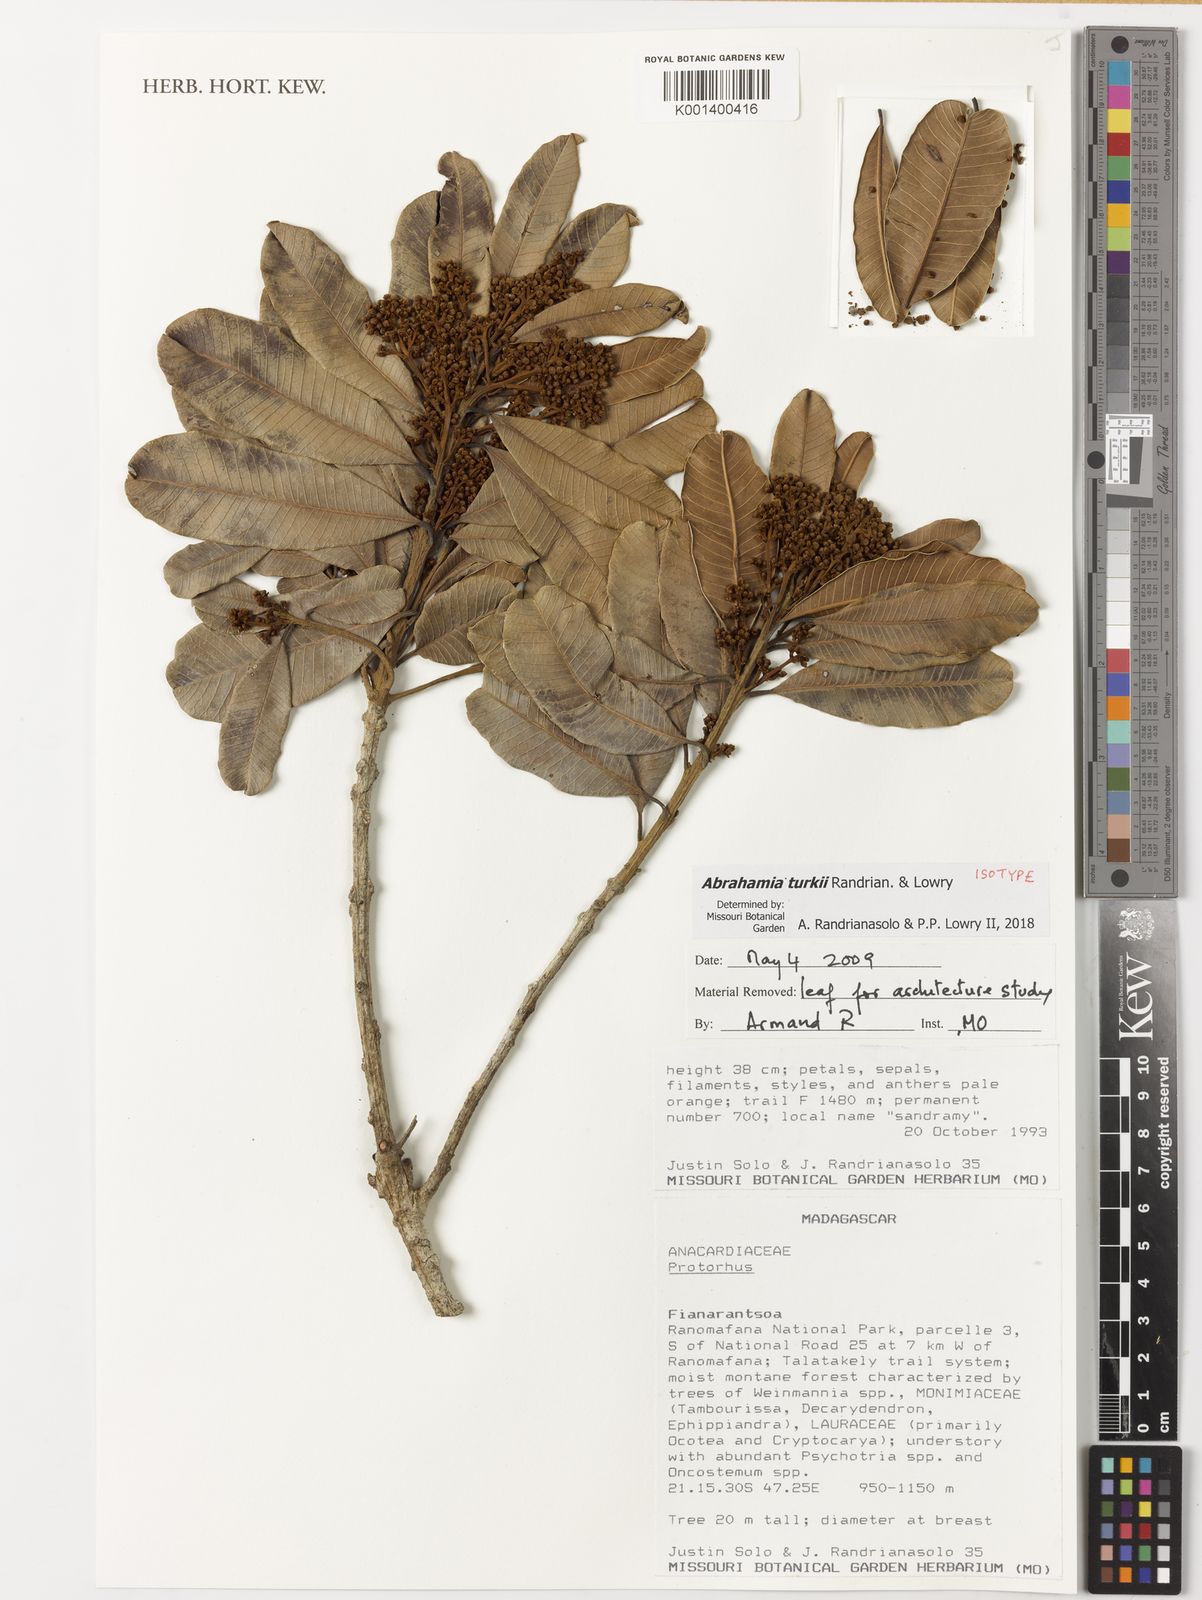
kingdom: Plantae
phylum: Tracheophyta
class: Magnoliopsida
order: Sapindales
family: Anacardiaceae
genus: Abrahamia
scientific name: Abrahamia turkii
